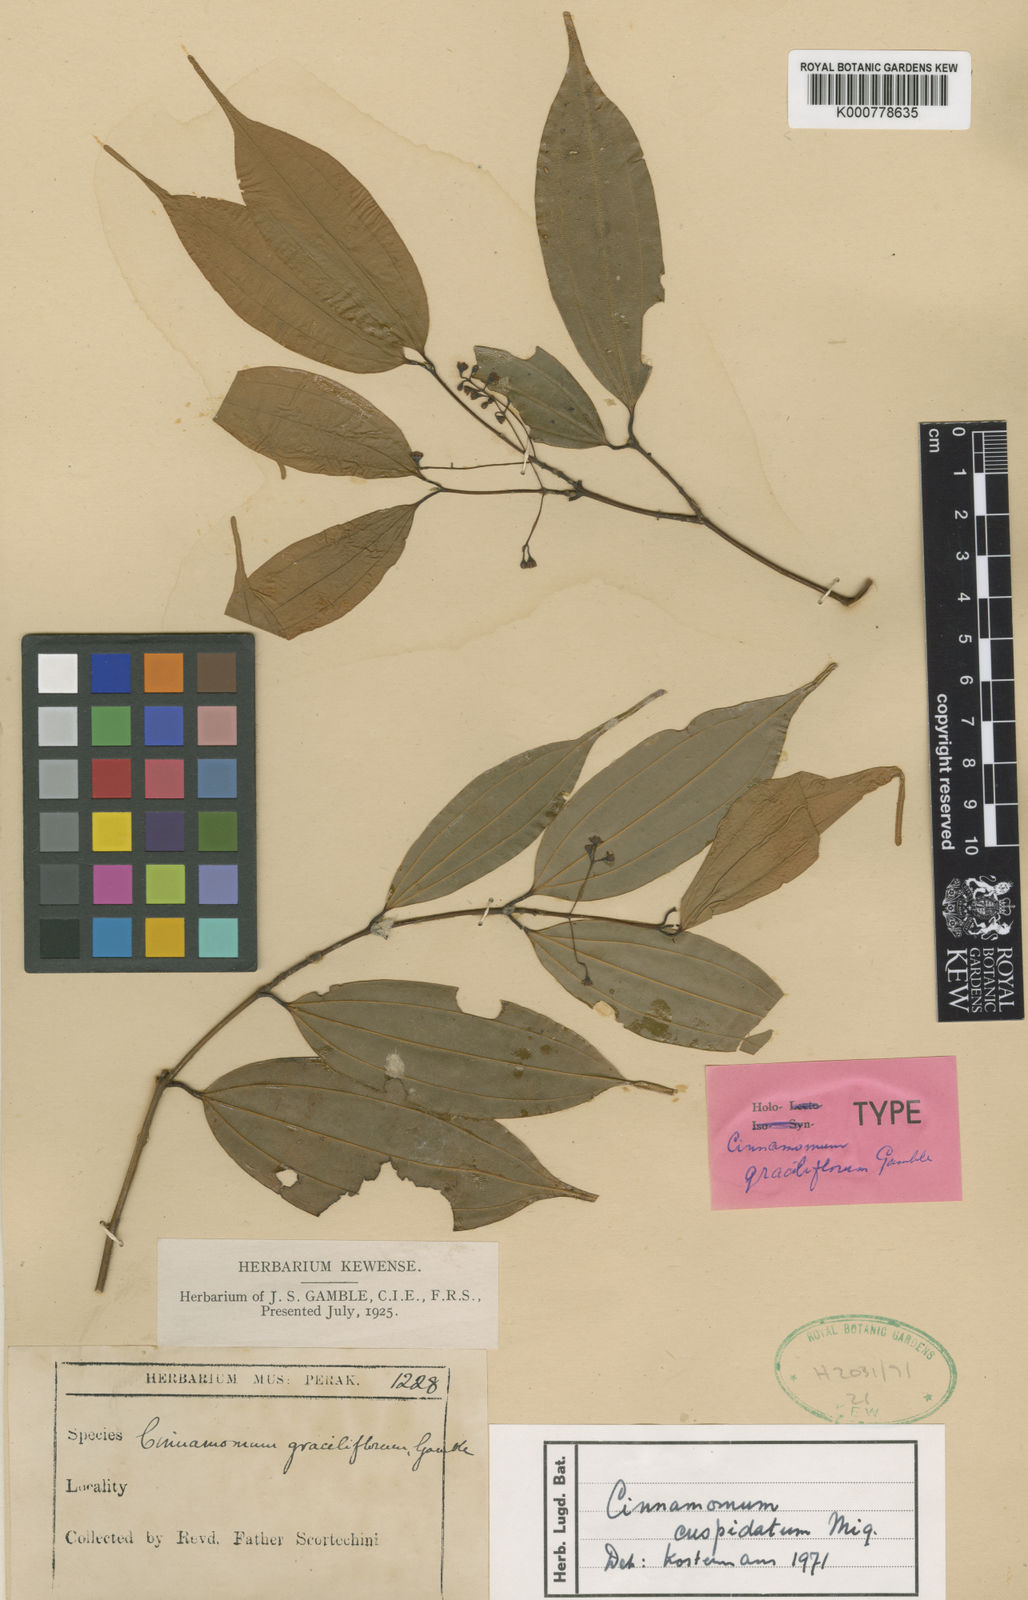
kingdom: Plantae
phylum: Tracheophyta
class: Magnoliopsida
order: Laurales
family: Lauraceae
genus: Cinnamomum
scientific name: Cinnamomum cuspidatum
